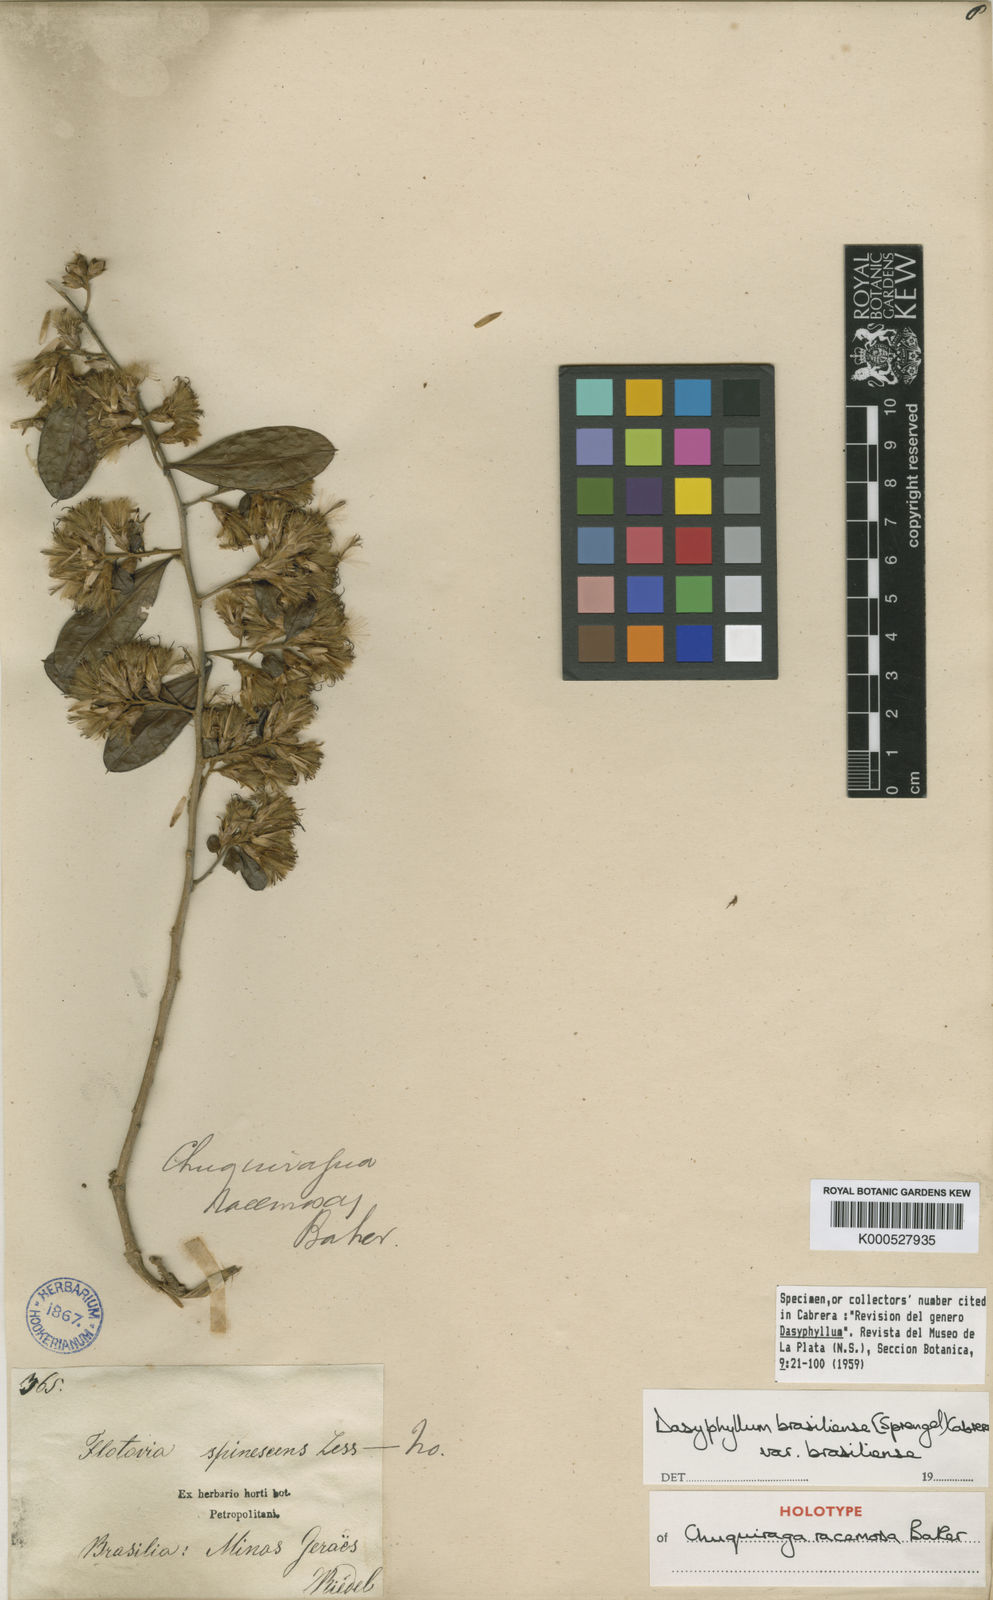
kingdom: Plantae
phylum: Tracheophyta
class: Magnoliopsida
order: Asterales
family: Asteraceae
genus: Dasyphyllum
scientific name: Dasyphyllum brasiliense
